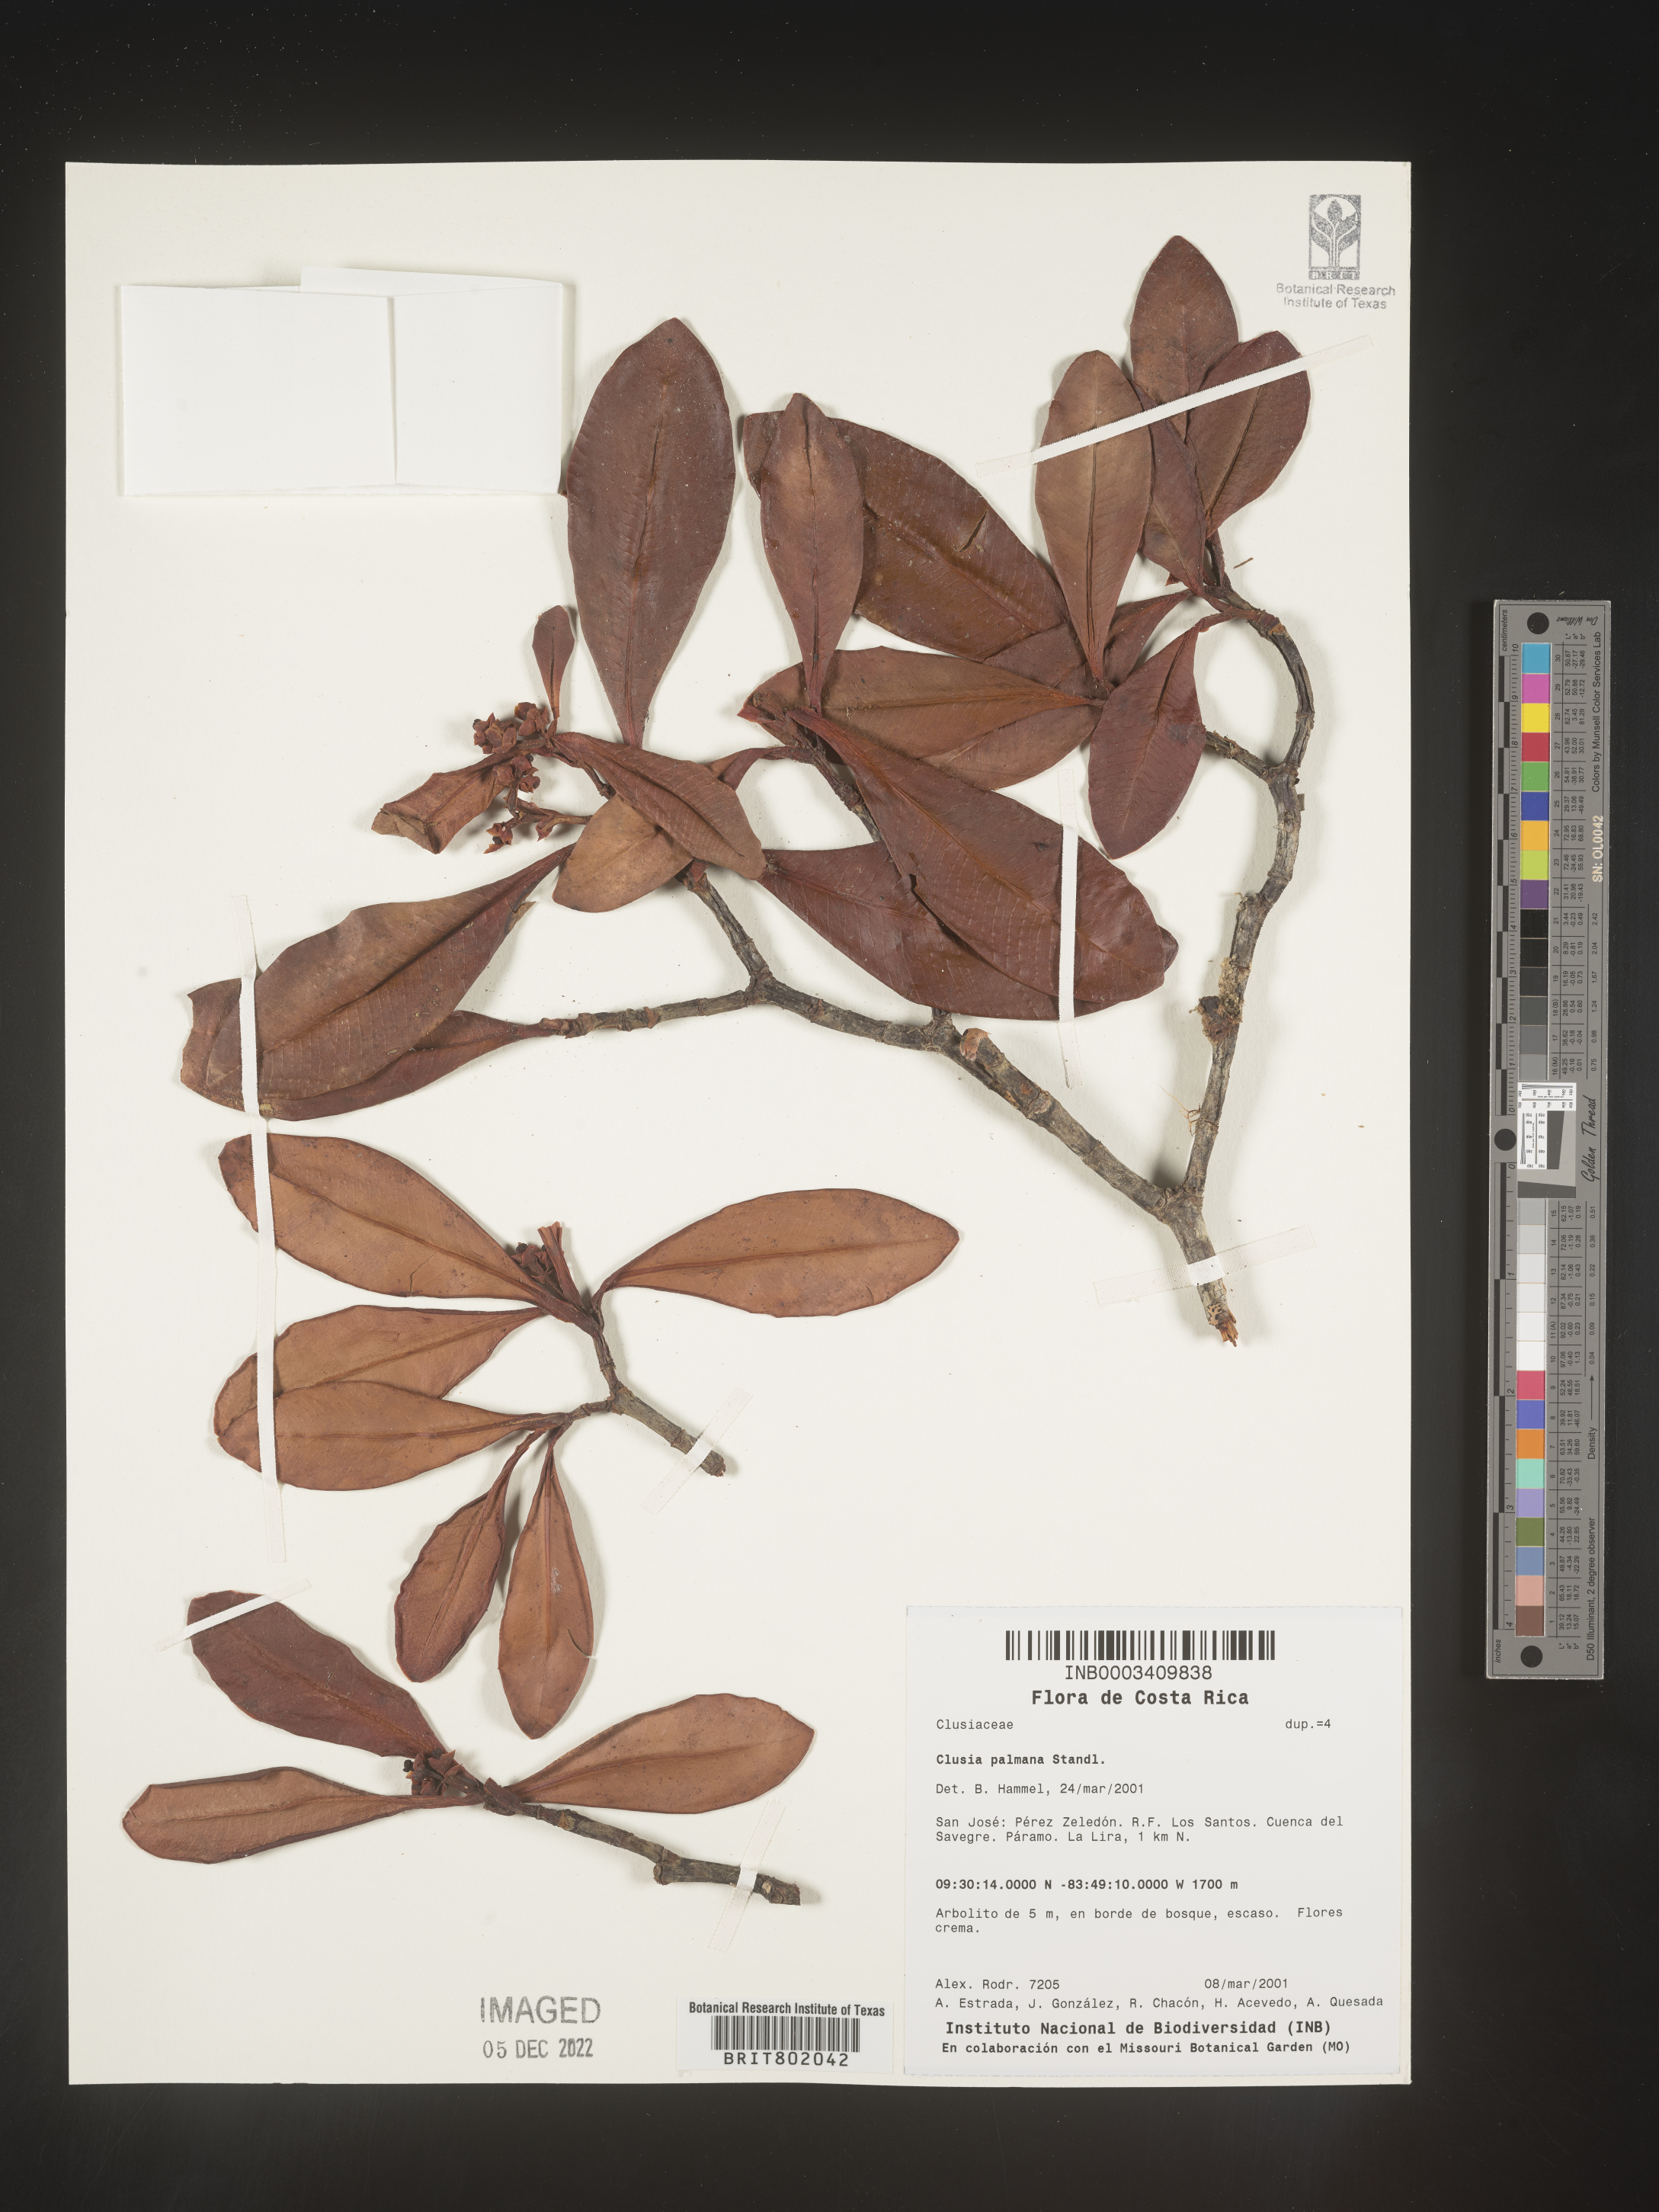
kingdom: Plantae
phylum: Tracheophyta
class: Magnoliopsida
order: Malpighiales
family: Clusiaceae
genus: Clusia
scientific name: Clusia
